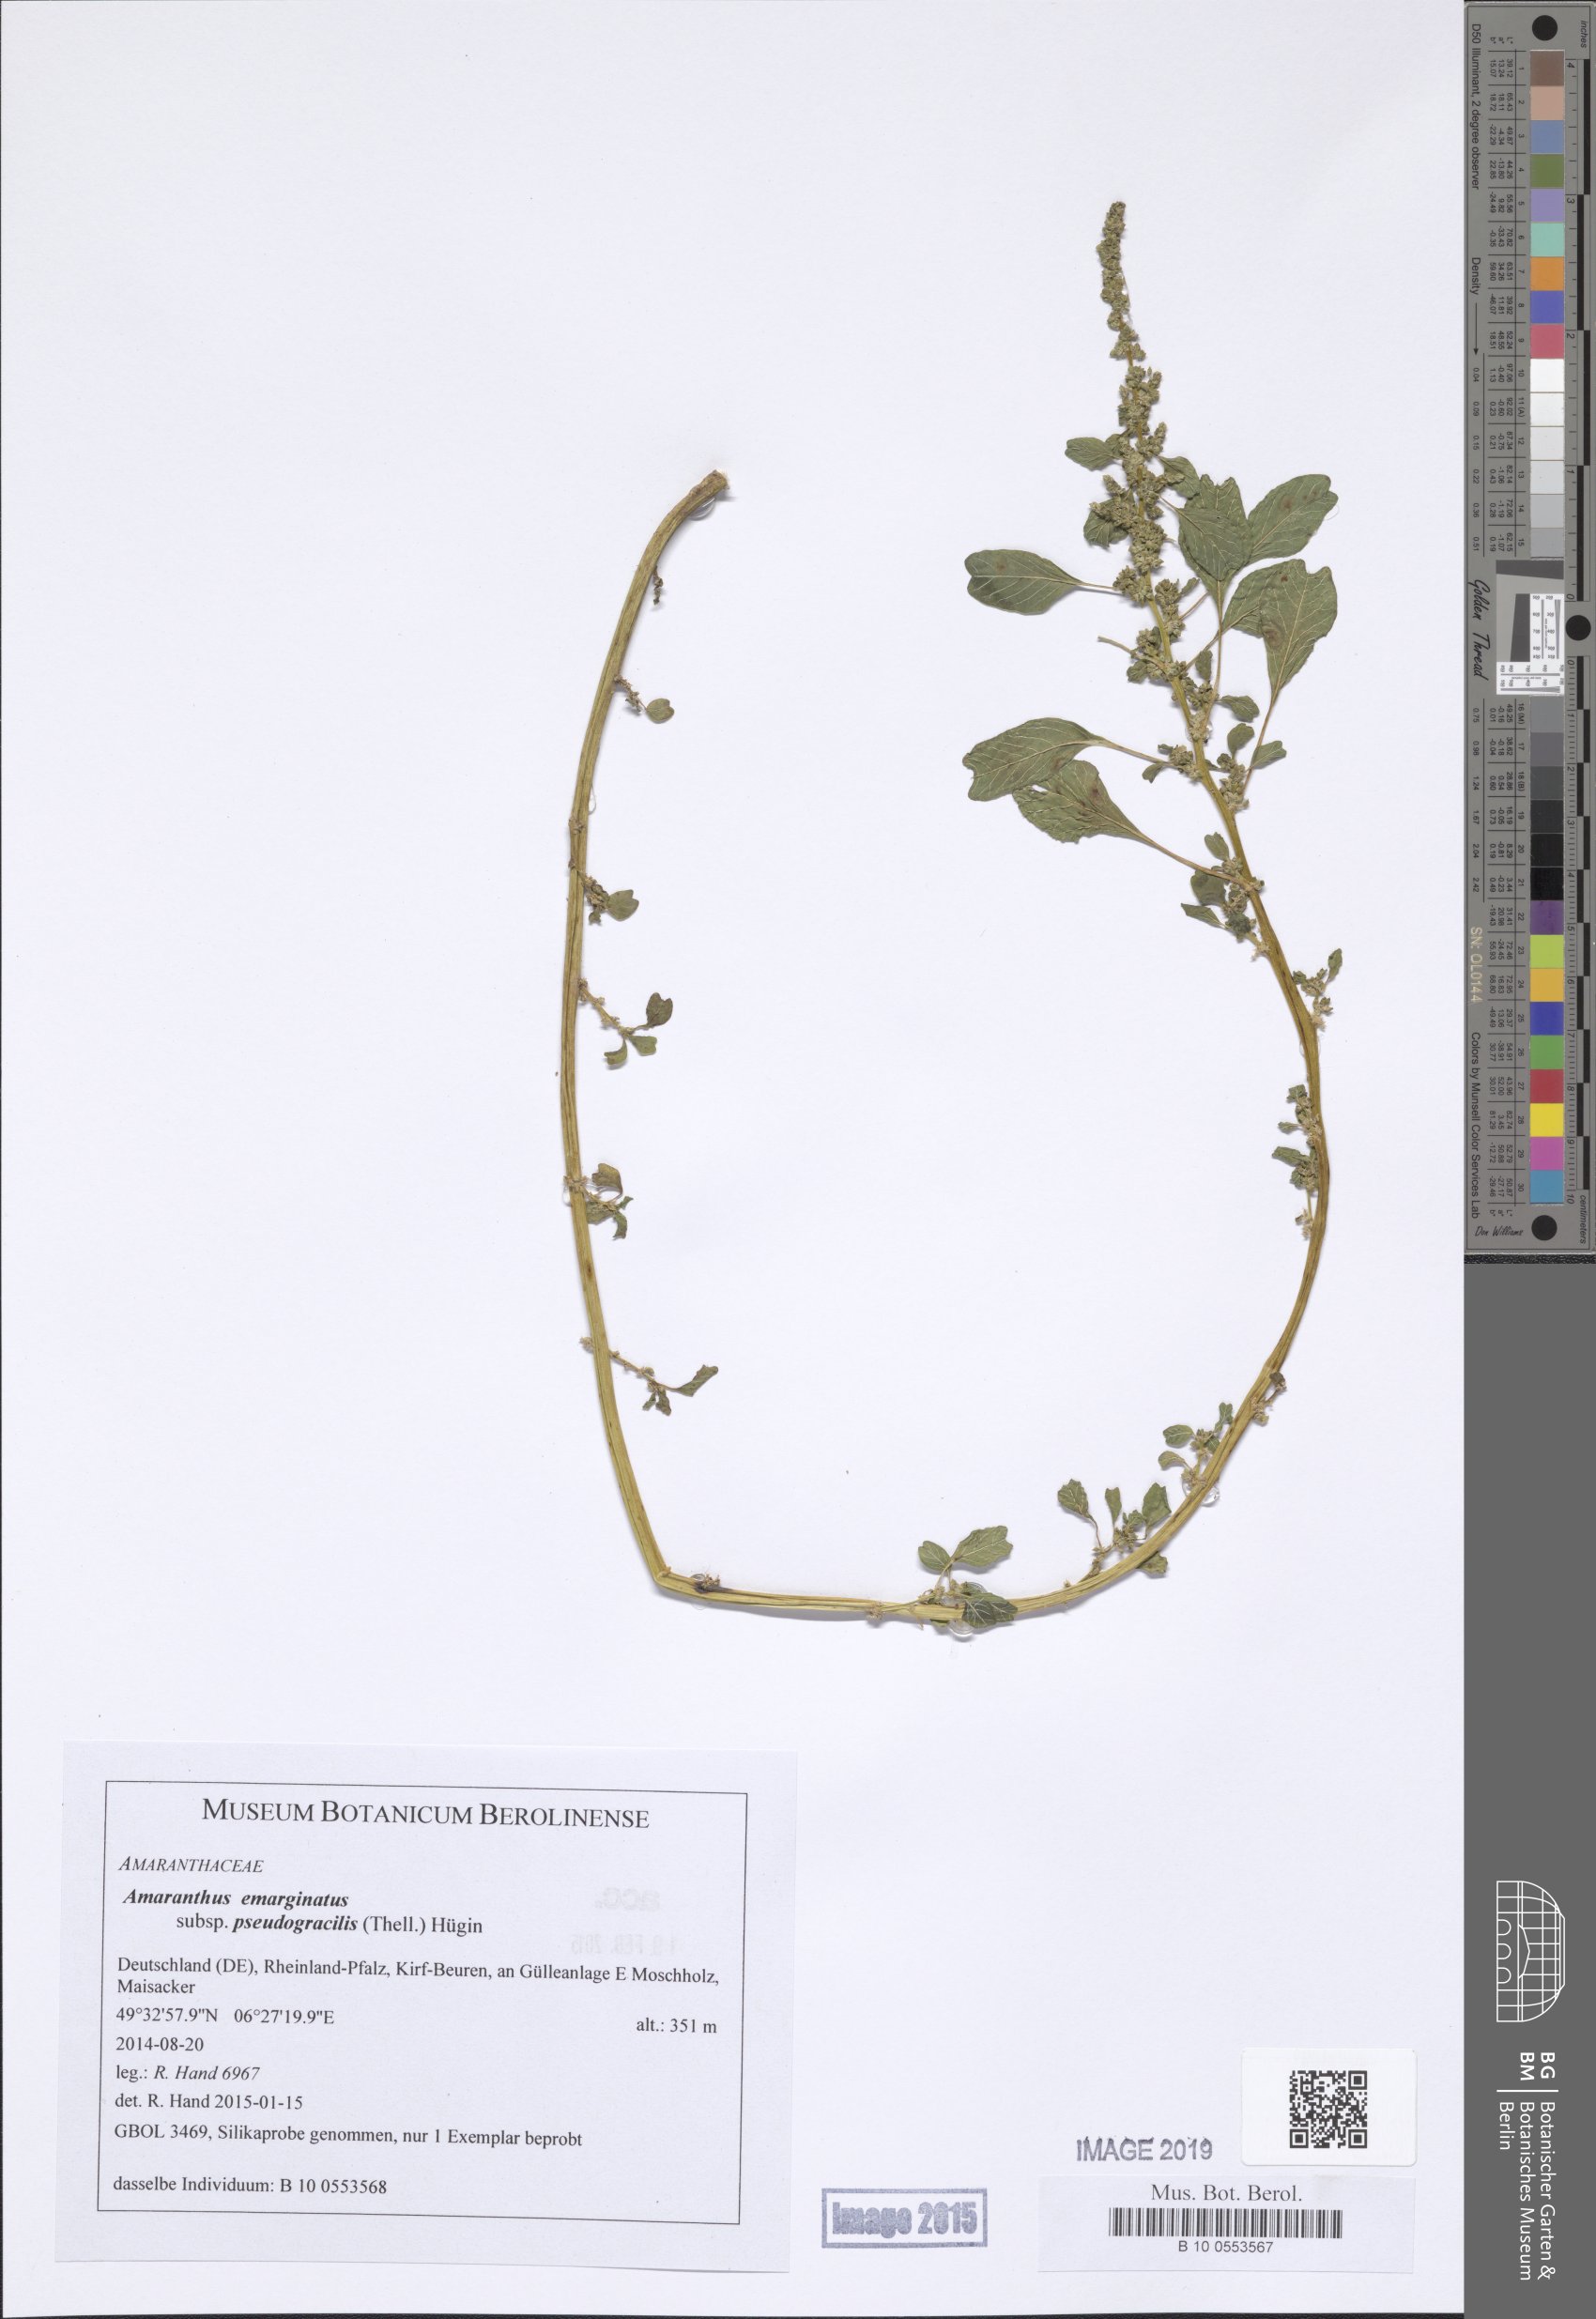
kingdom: Plantae
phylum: Tracheophyta
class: Magnoliopsida
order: Caryophyllales
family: Amaranthaceae
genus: Amaranthus
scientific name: Amaranthus emarginatus
